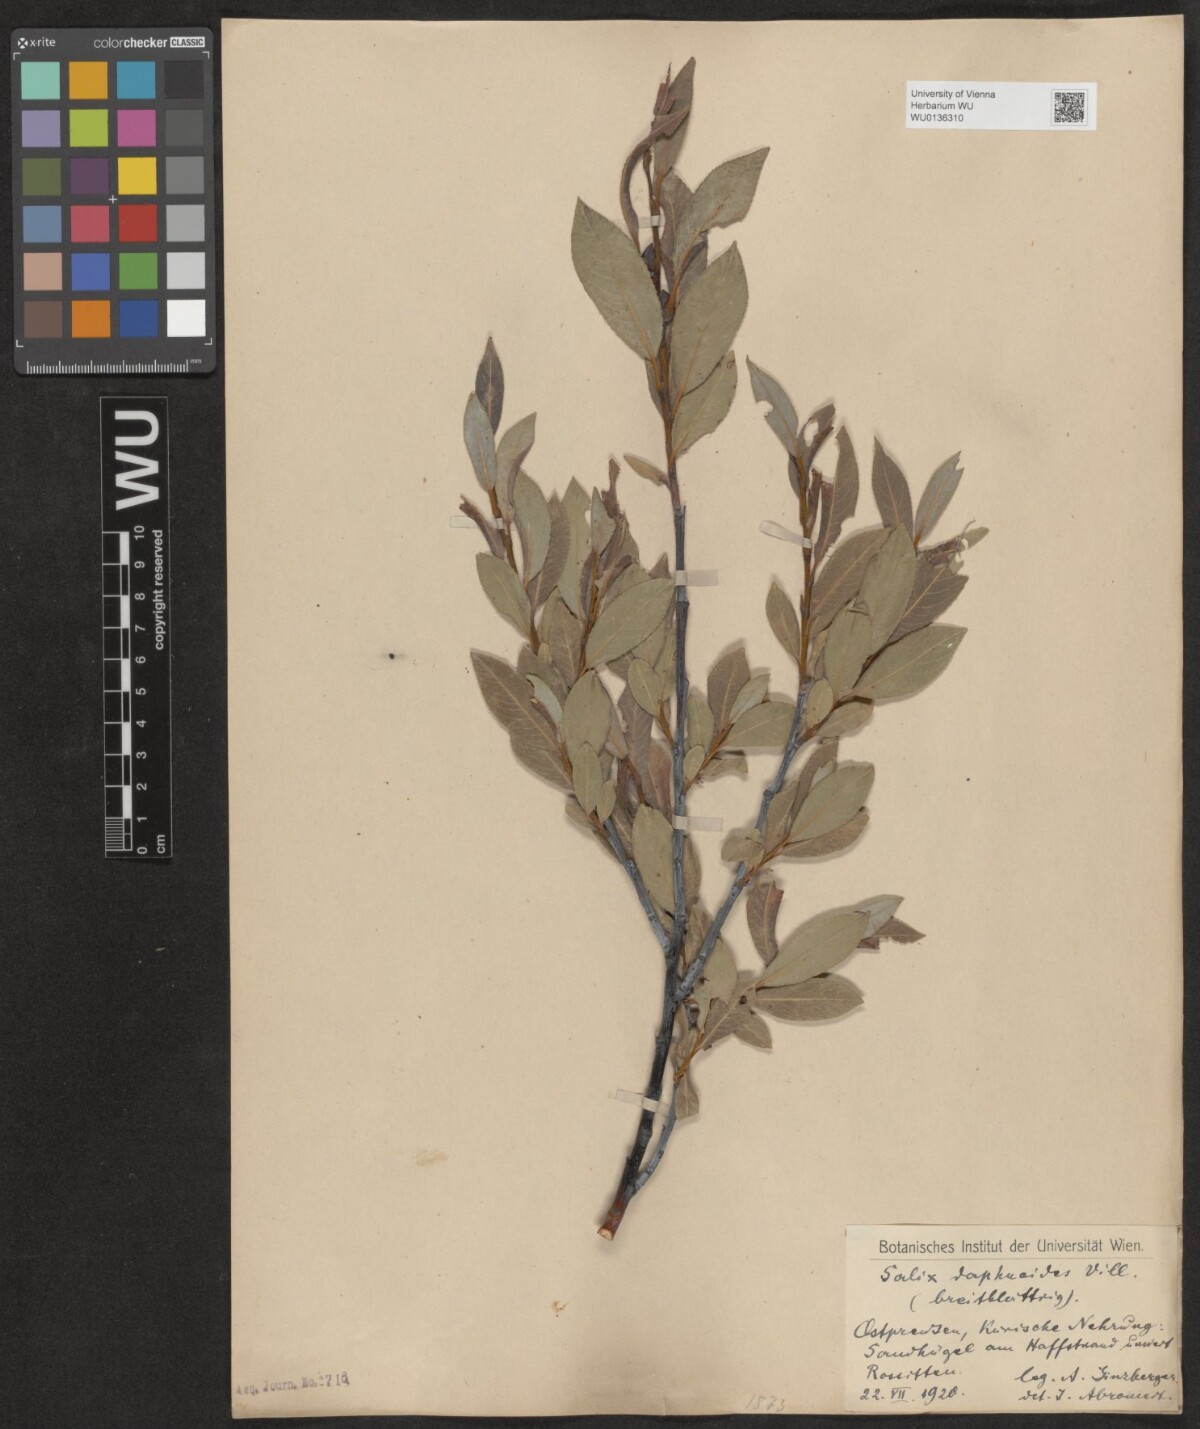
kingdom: Plantae
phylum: Tracheophyta
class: Magnoliopsida
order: Malpighiales
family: Salicaceae
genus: Salix
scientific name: Salix daphnoides
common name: European violet-willow
